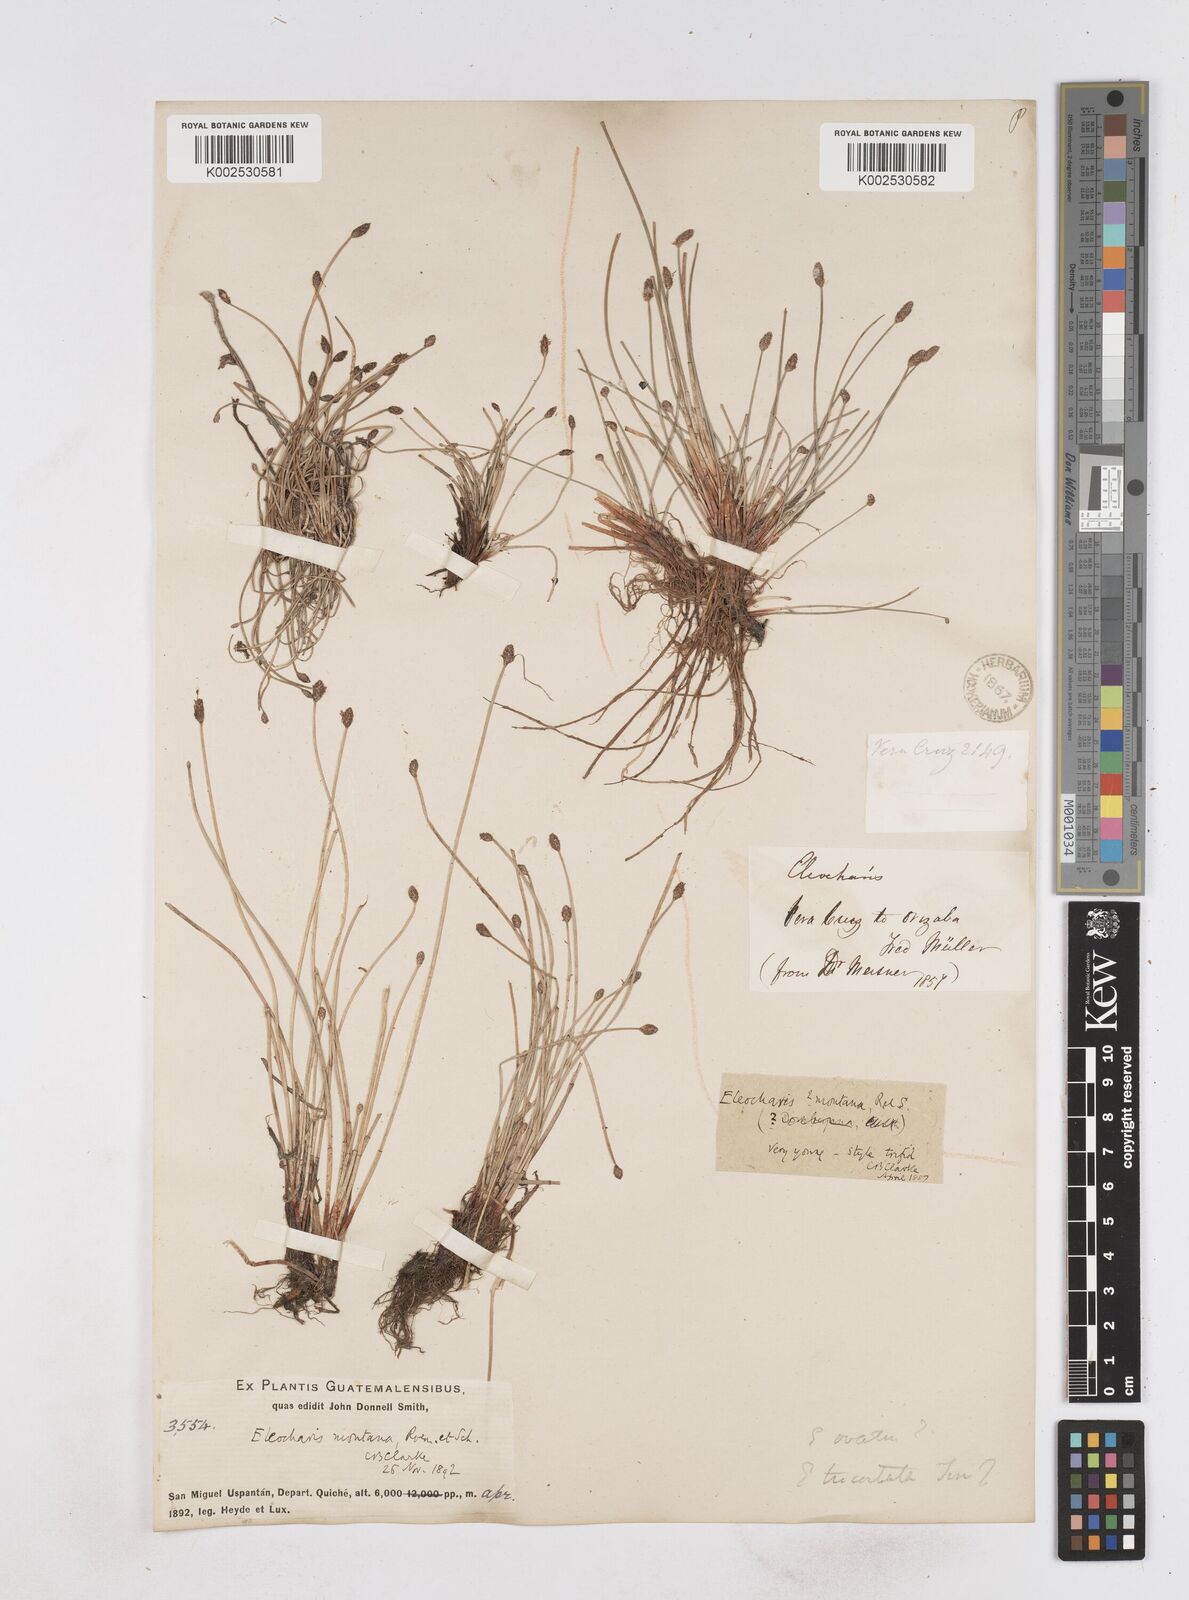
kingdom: Plantae
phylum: Tracheophyta
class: Liliopsida
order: Poales
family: Cyperaceae
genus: Eleocharis
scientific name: Eleocharis montana
